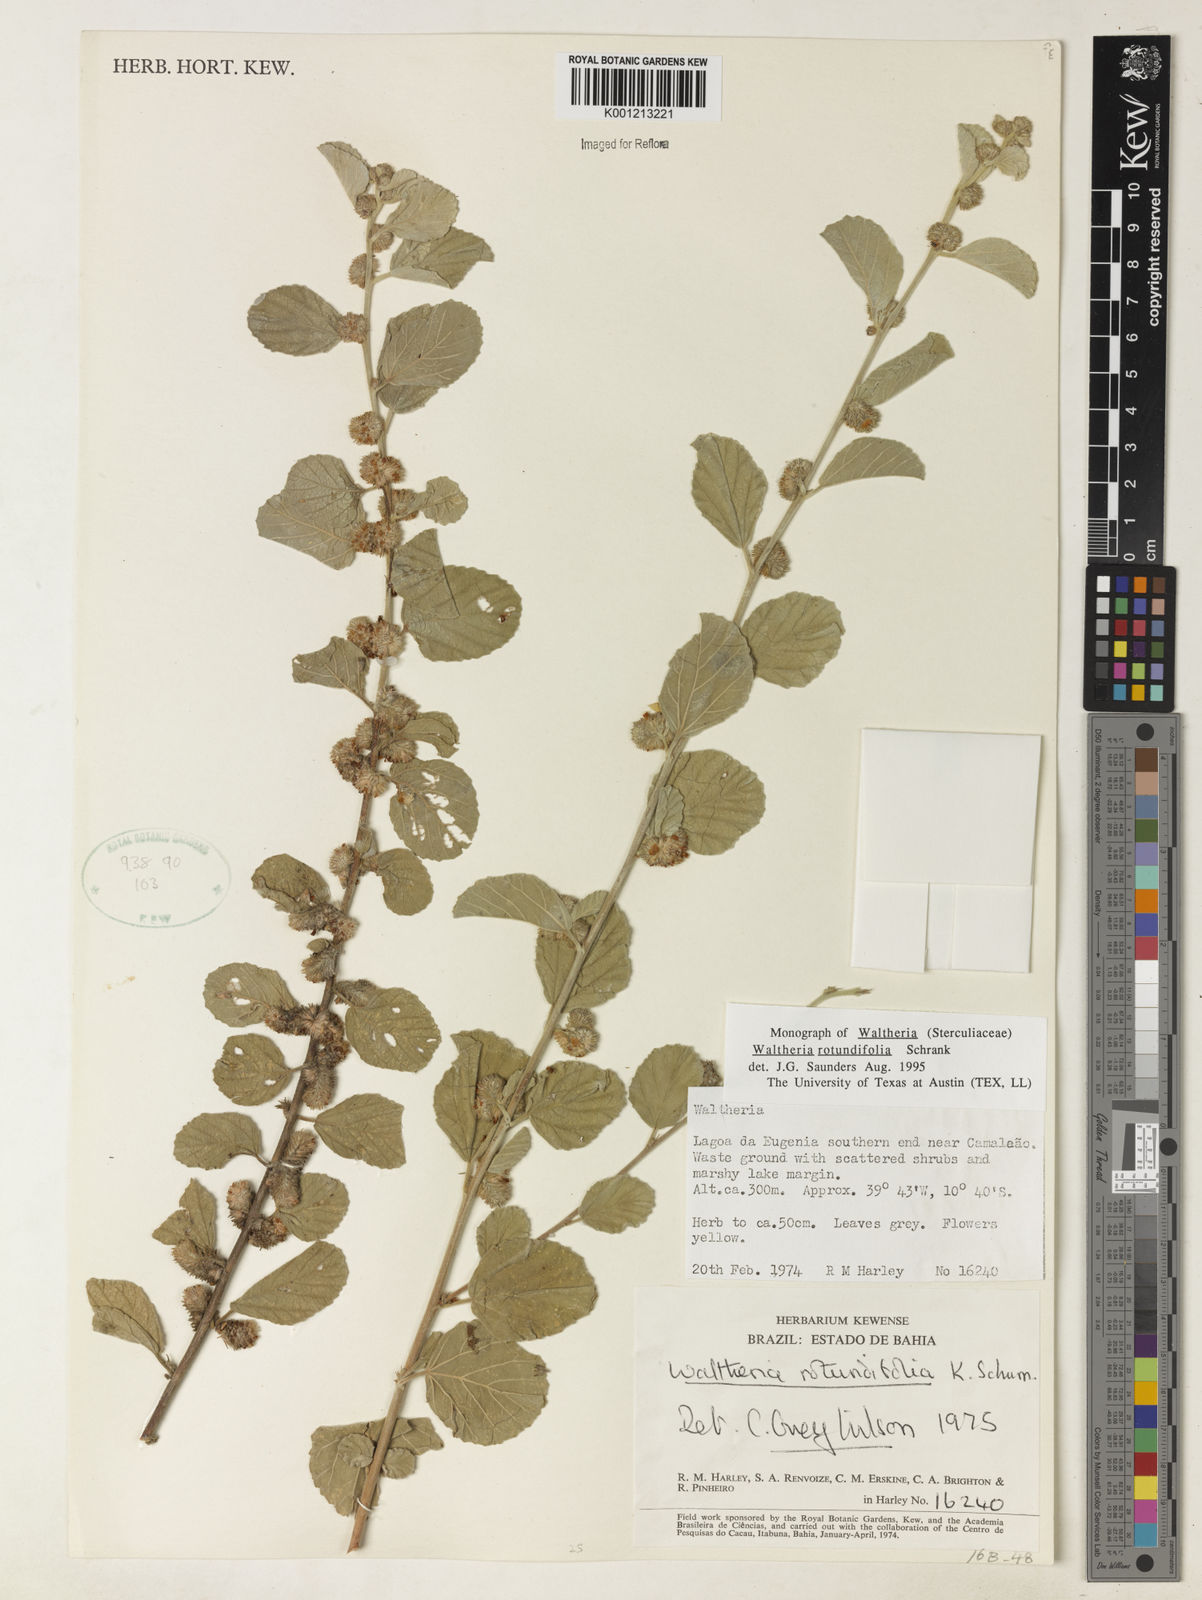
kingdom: Plantae
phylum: Tracheophyta
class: Magnoliopsida
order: Malvales
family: Malvaceae
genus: Waltheria
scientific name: Waltheria rotundifolia
